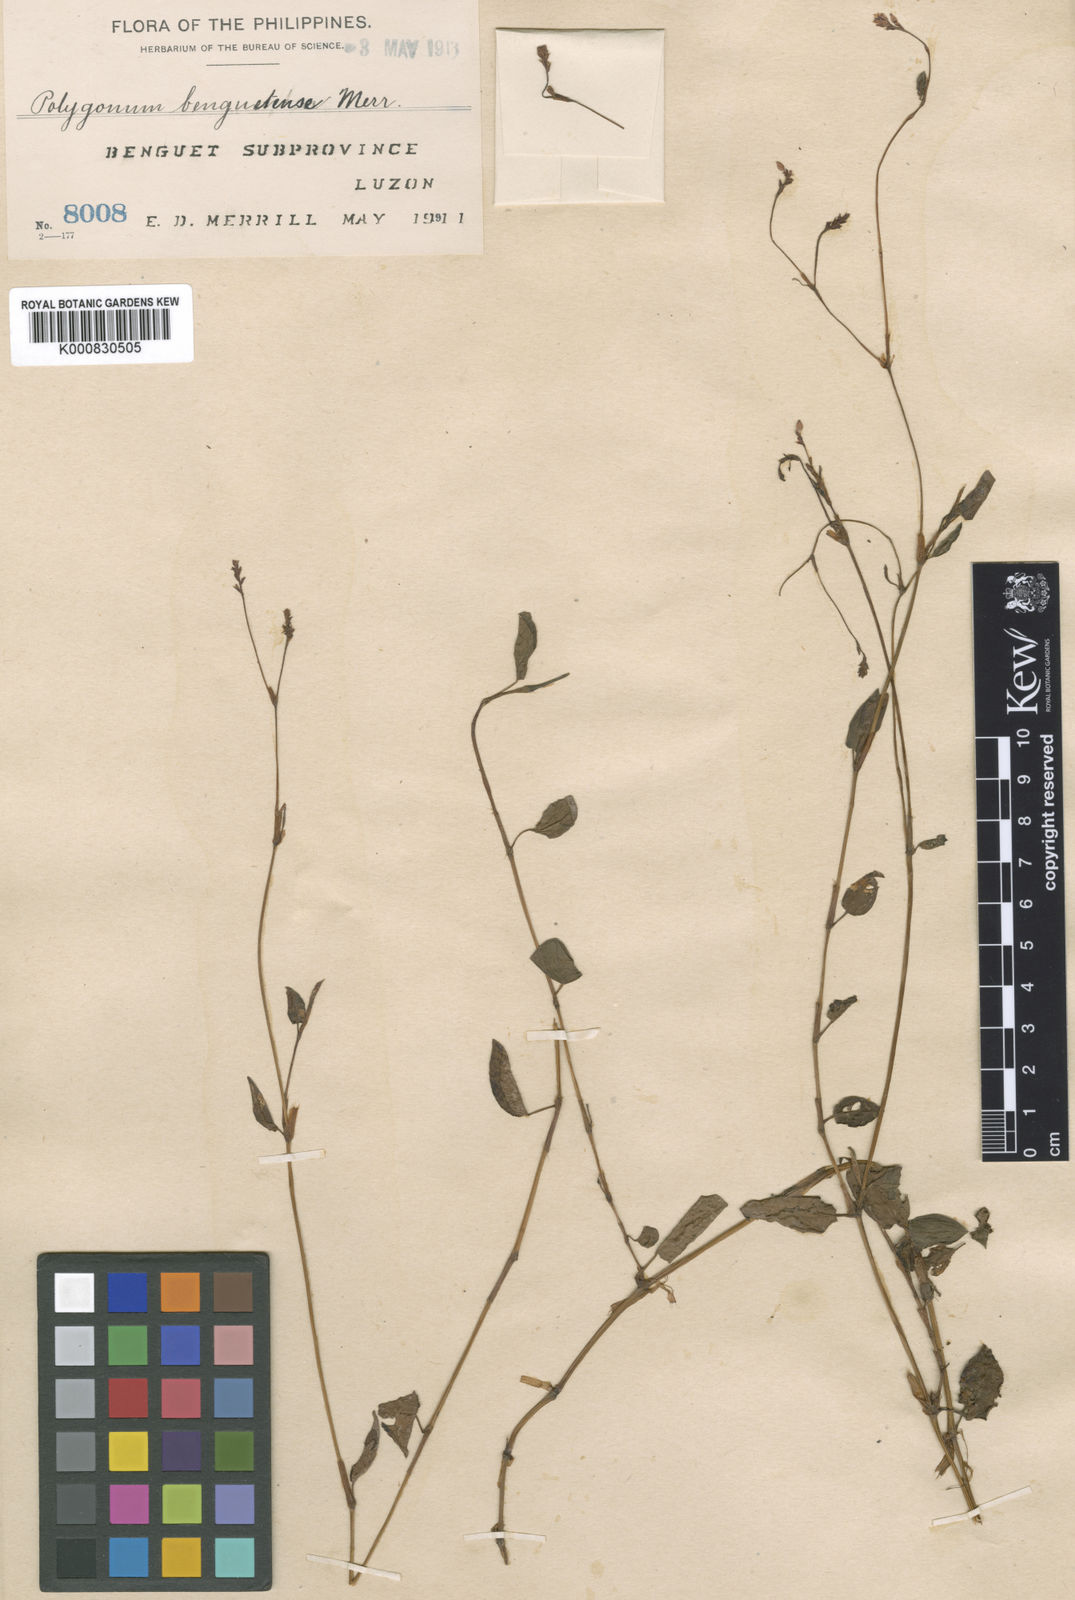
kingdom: Plantae
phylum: Tracheophyta
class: Magnoliopsida
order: Caryophyllales
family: Polygonaceae
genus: Persicaria
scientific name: Persicaria muricata
